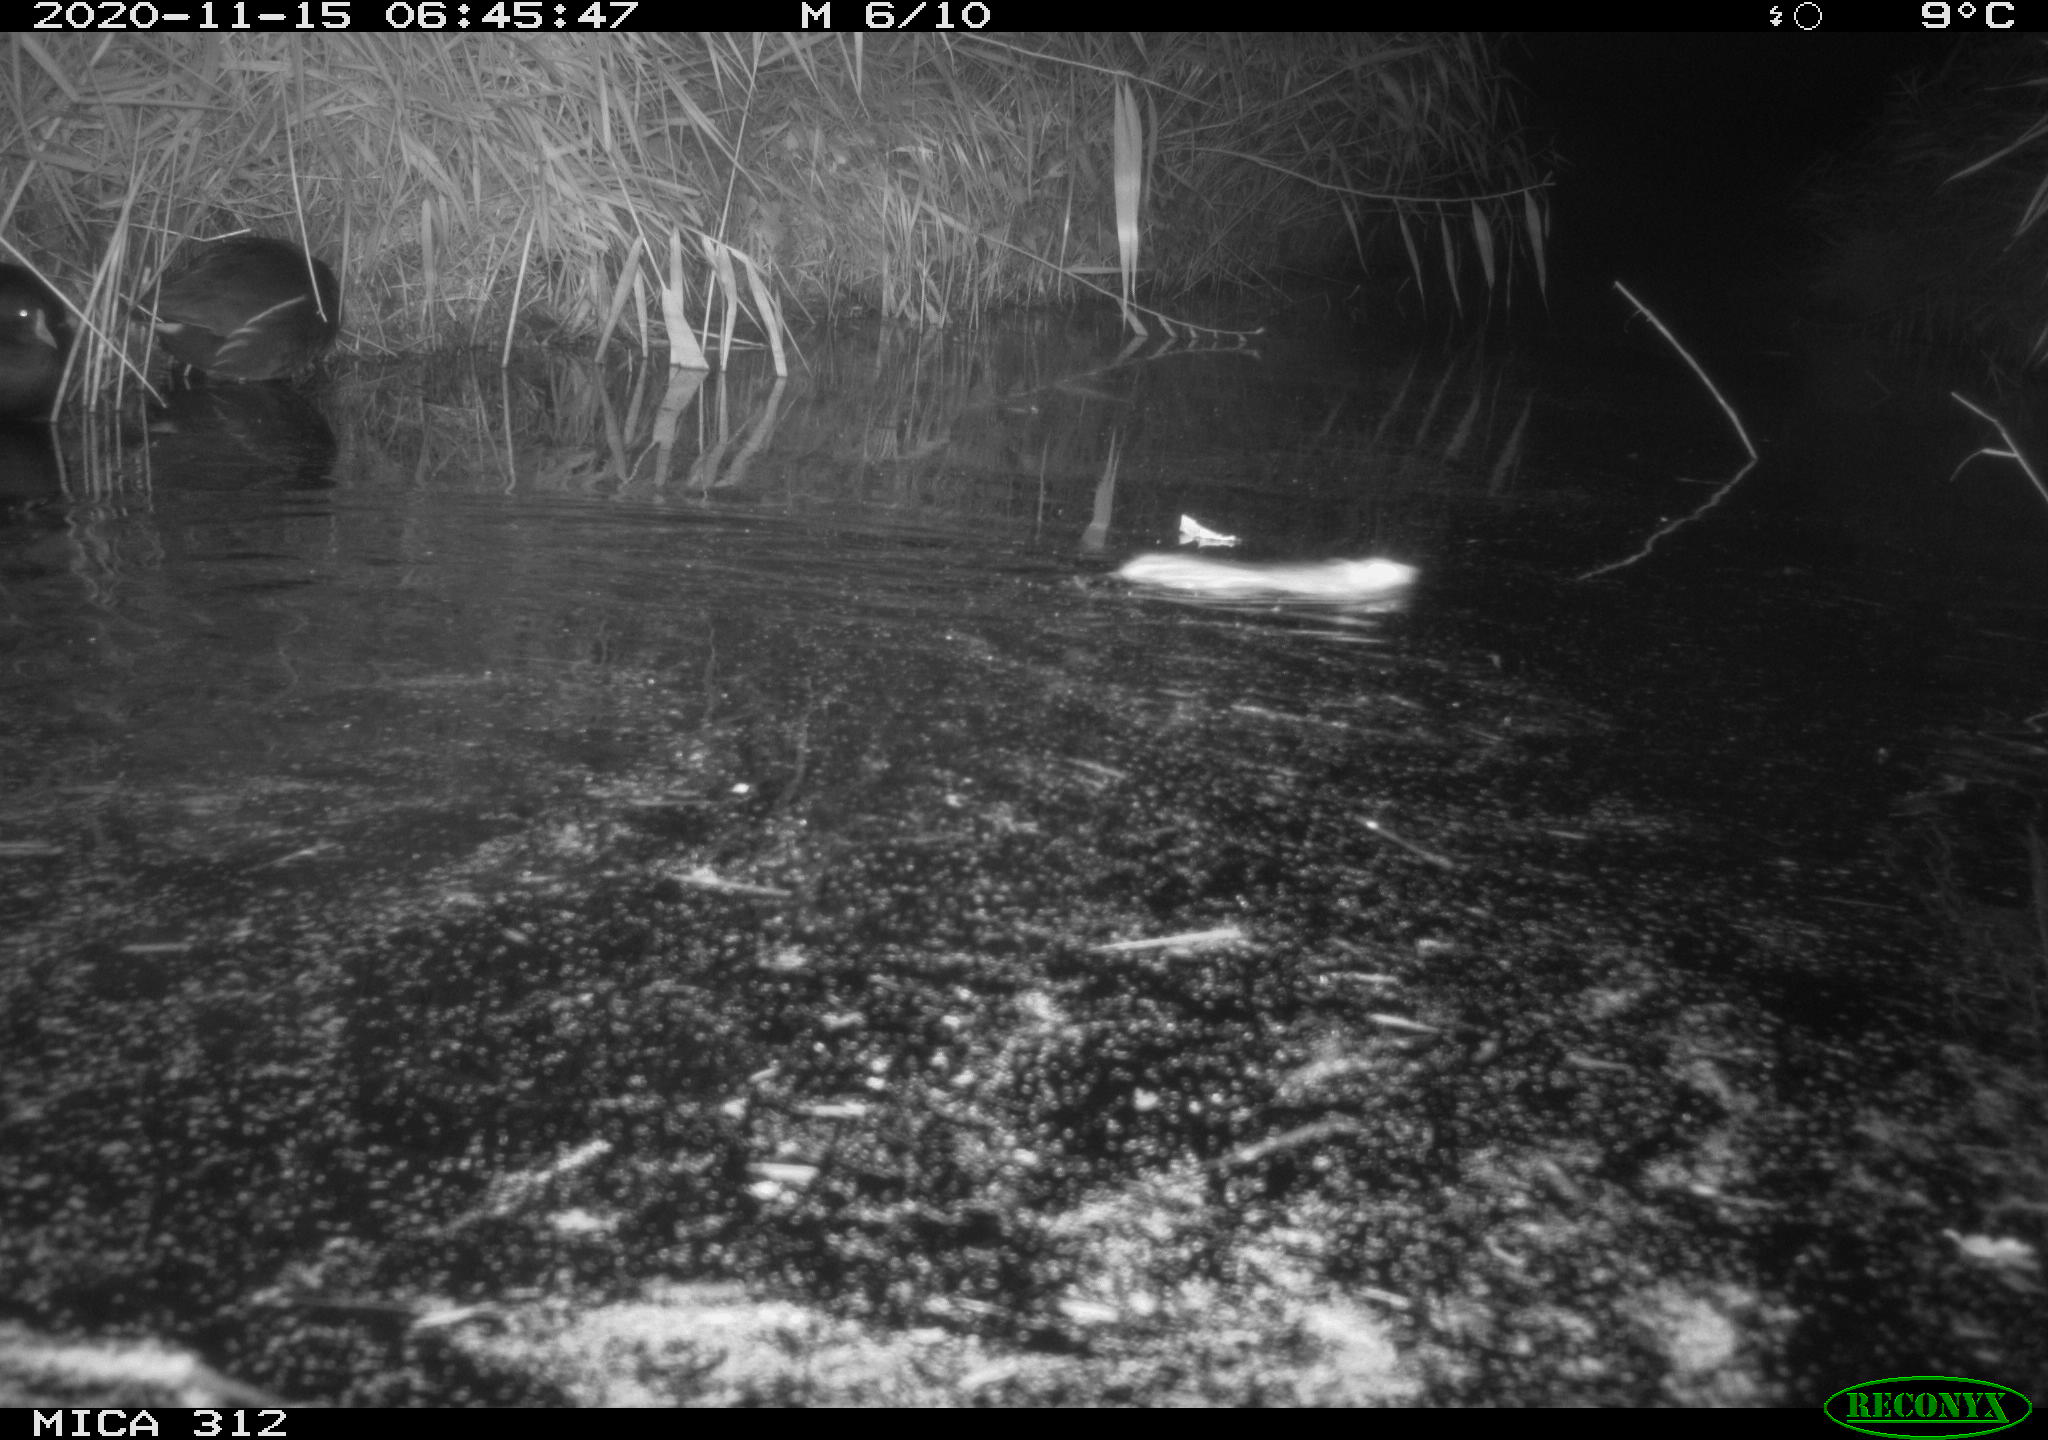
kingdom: Animalia
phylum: Chordata
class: Aves
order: Gruiformes
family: Rallidae
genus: Gallinula
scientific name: Gallinula chloropus
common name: Common moorhen
